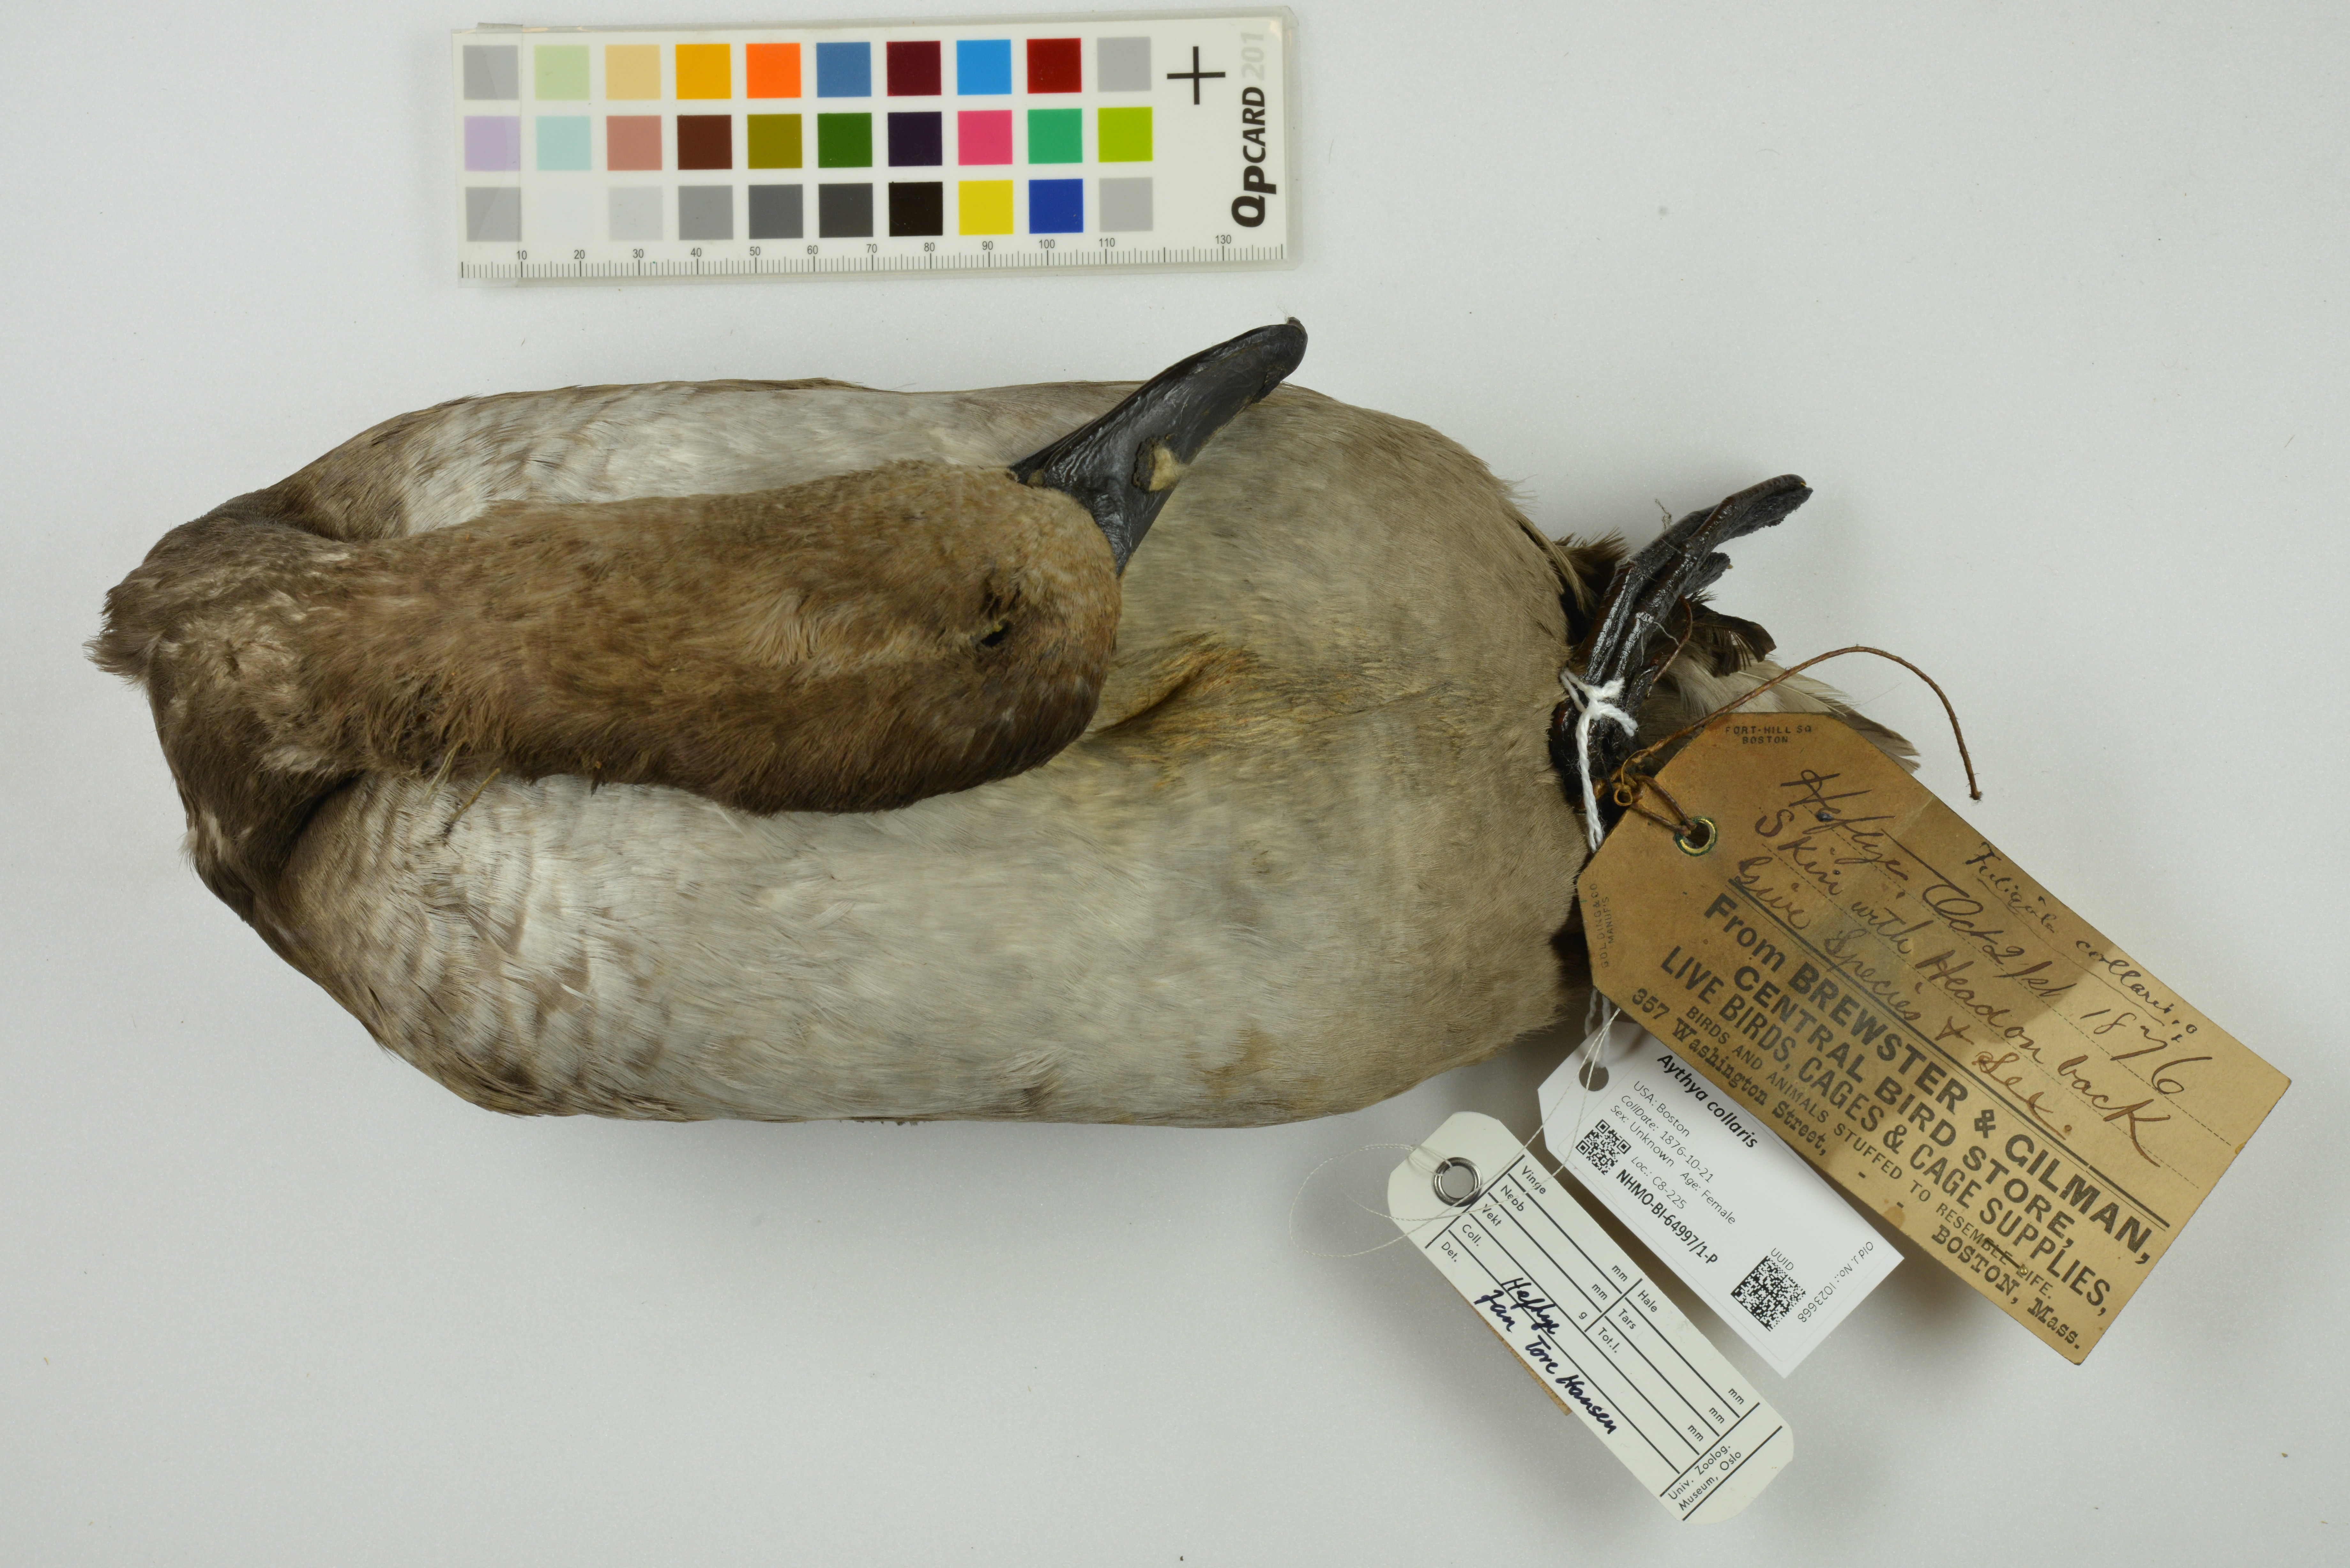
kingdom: Animalia
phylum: Chordata
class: Aves
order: Anseriformes
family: Anatidae
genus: Aythya
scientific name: Aythya collaris
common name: Ring-necked duck
